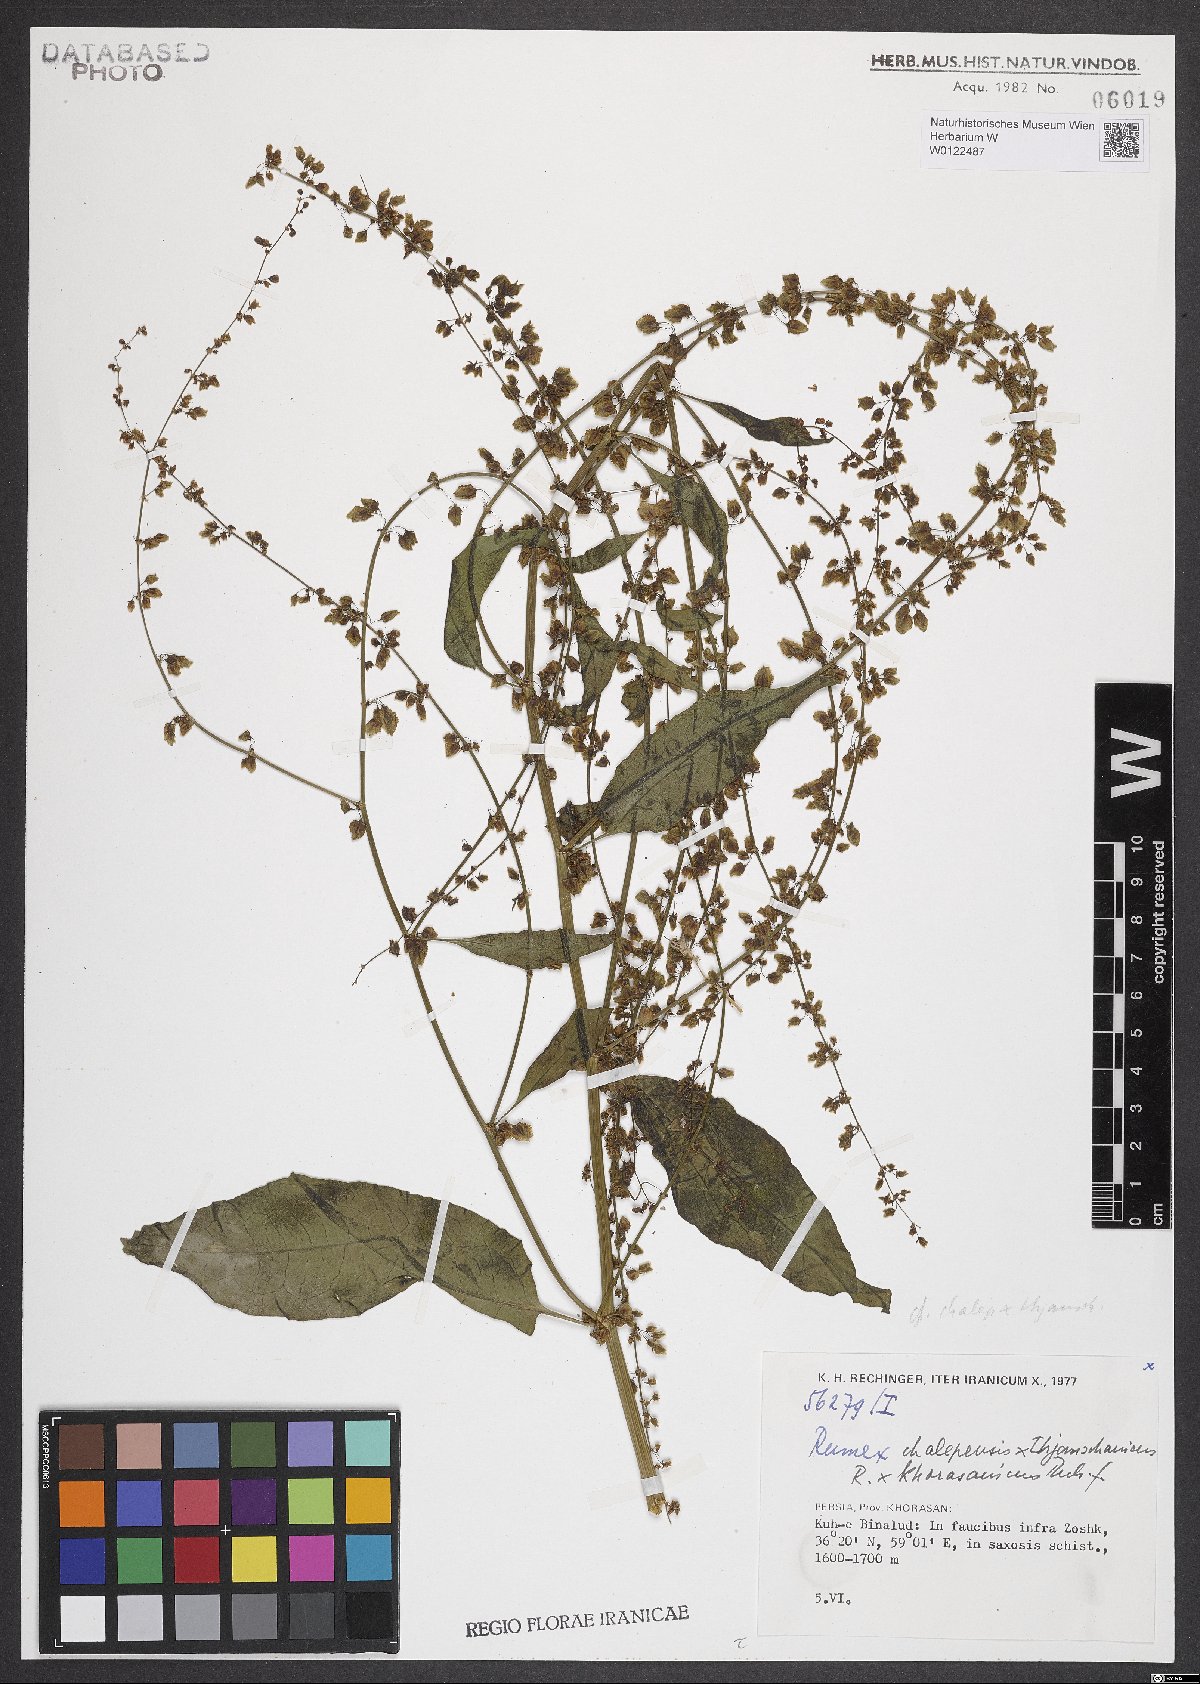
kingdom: Plantae
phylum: Tracheophyta
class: Magnoliopsida
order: Caryophyllales
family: Polygonaceae
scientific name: Polygonaceae
